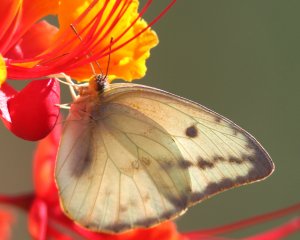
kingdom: Animalia
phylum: Arthropoda
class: Insecta
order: Lepidoptera
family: Pieridae
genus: Phoebis
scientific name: Phoebis agarithe
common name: Large Orange Sulphur
